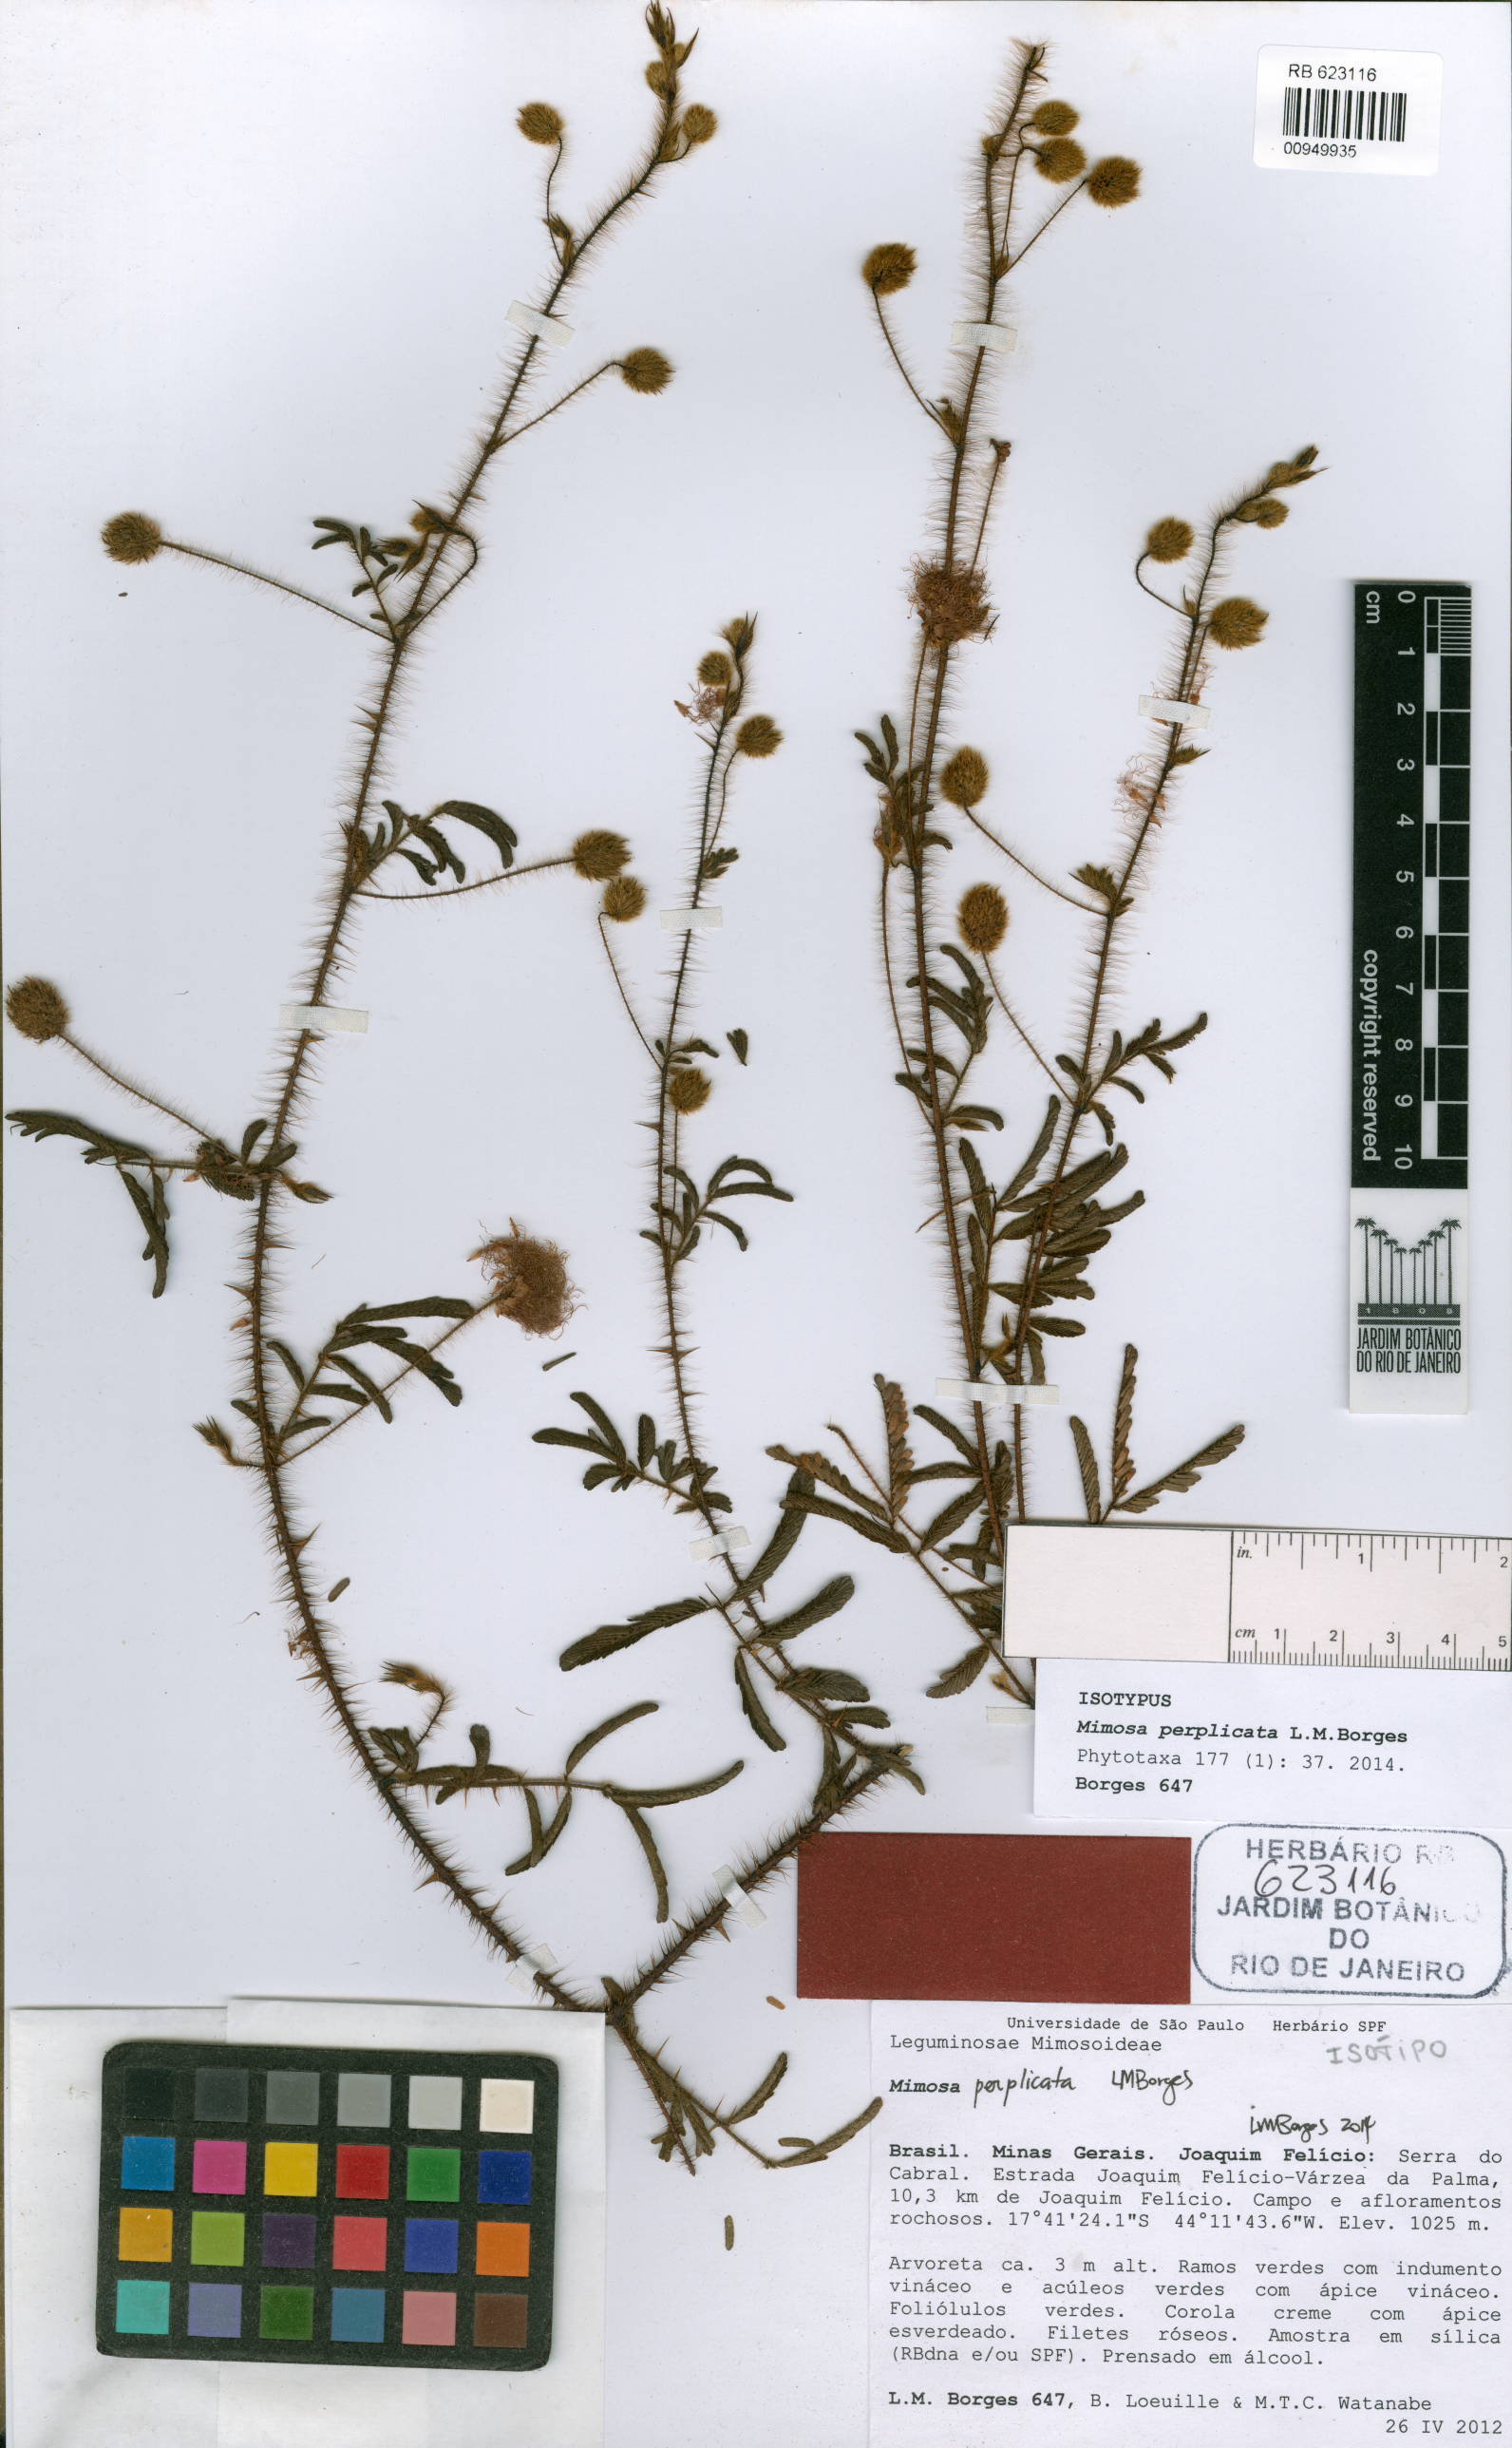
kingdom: Plantae
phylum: Tracheophyta
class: Magnoliopsida
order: Fabales
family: Fabaceae
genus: Mimosa
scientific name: Mimosa perplicata
